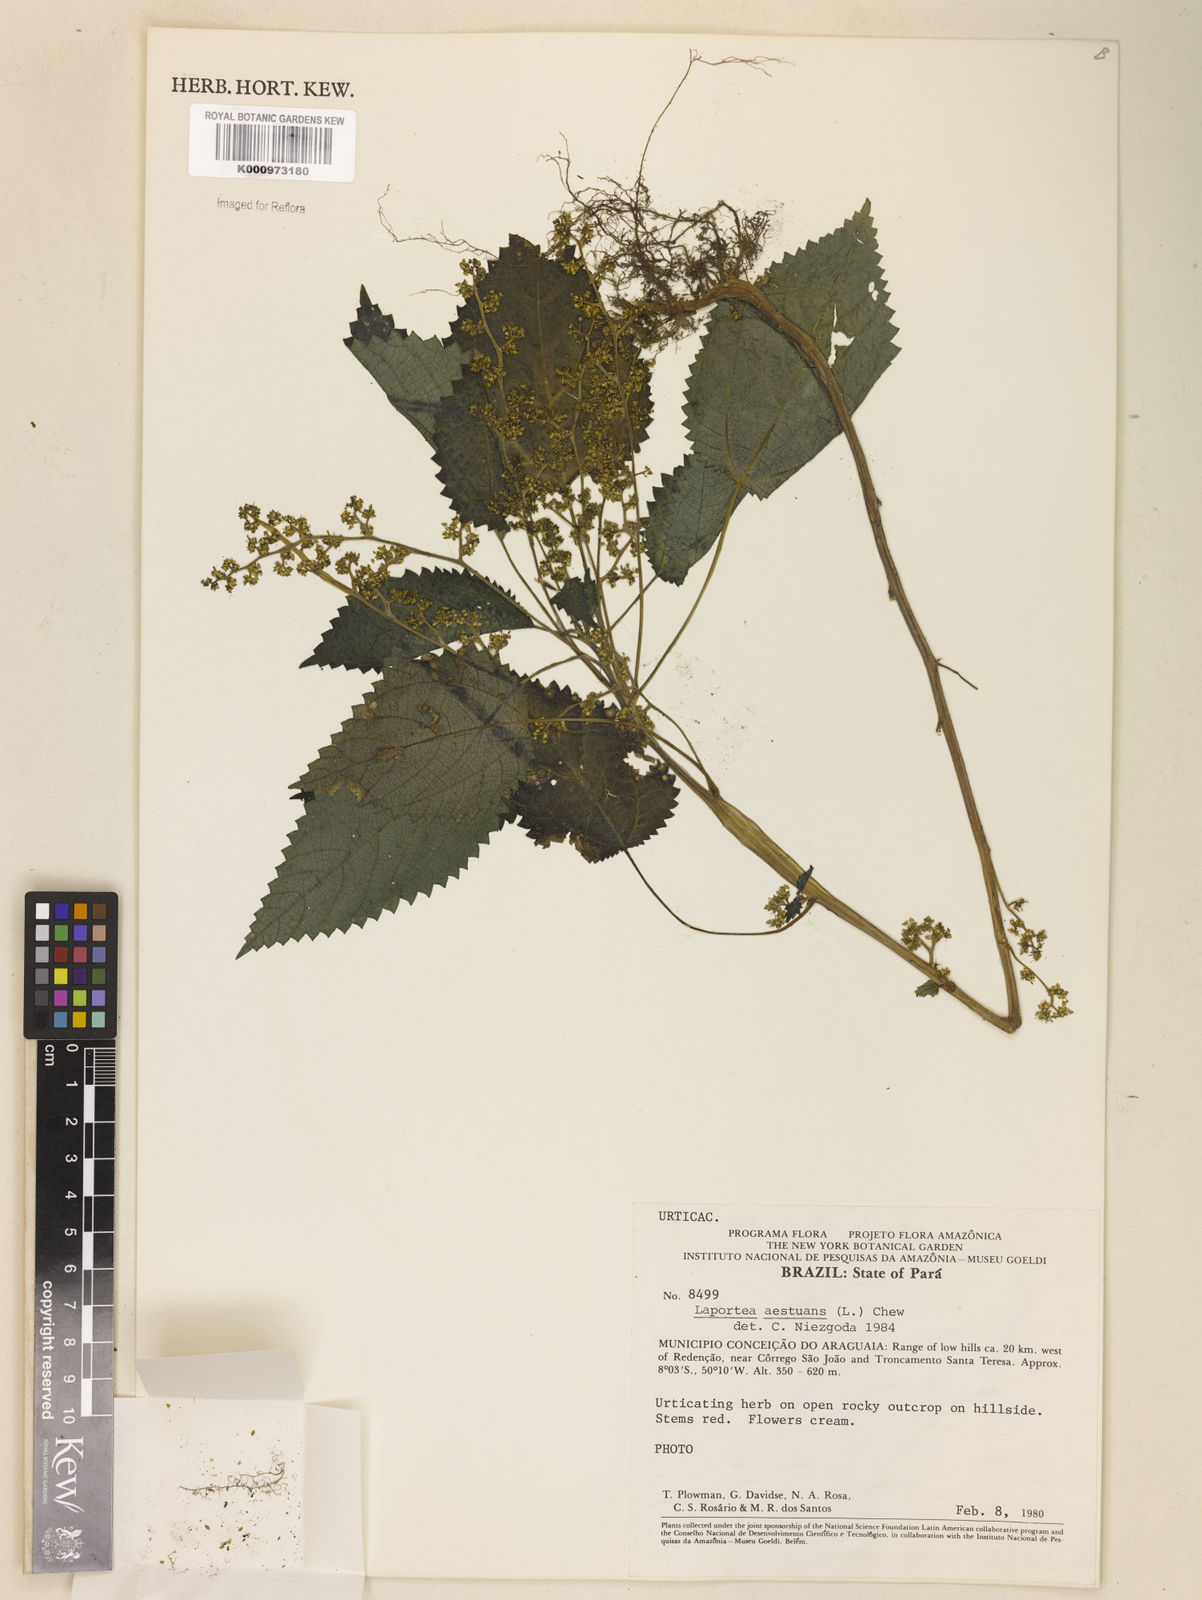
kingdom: Plantae
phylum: Tracheophyta
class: Magnoliopsida
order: Rosales
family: Urticaceae
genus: Laportea
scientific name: Laportea aestuans
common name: West indian woodnettle
